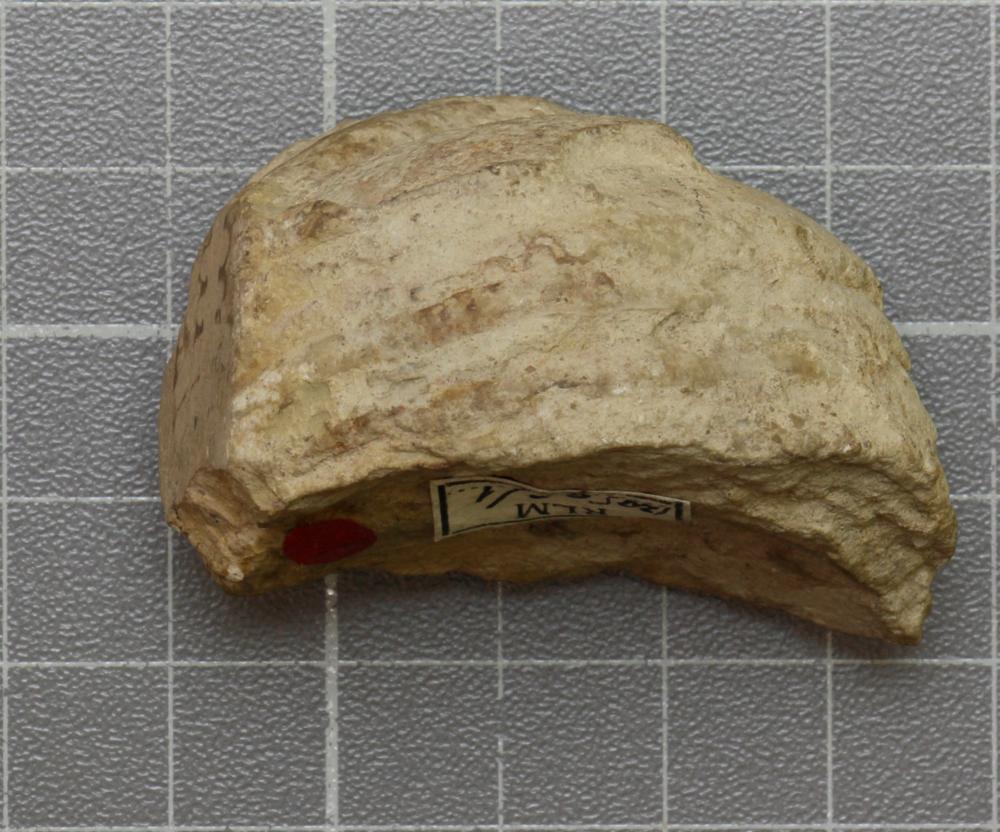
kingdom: Animalia
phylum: Mollusca
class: Cephalopoda
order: Nautilida
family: Nautilidae
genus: Richardsonoceras
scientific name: Richardsonoceras sinuososeptatum
